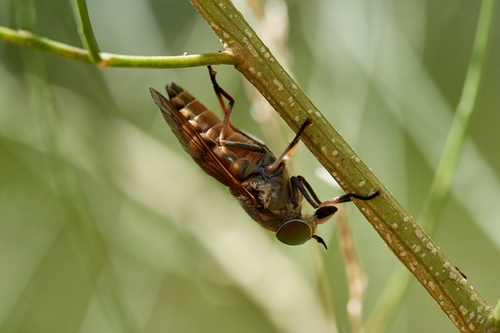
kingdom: Animalia
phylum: Arthropoda
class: Insecta
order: Diptera
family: Tabanidae
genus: Tabanus
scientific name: Tabanus
